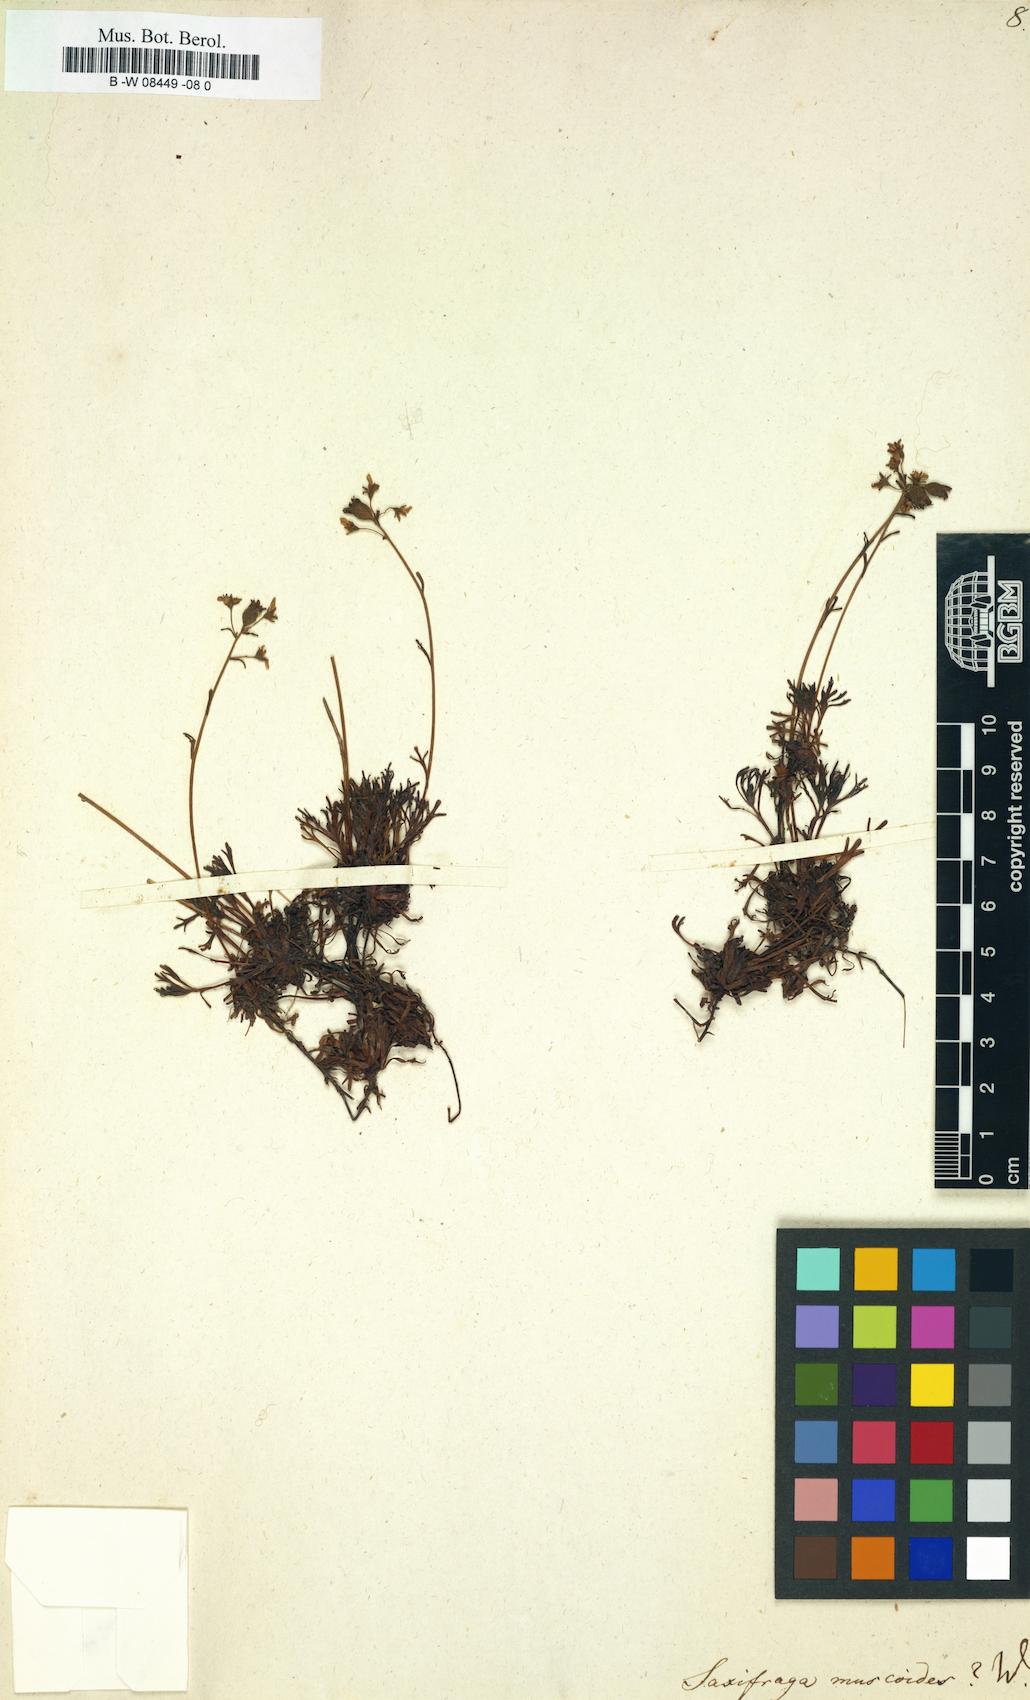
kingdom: Plantae
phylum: Tracheophyta
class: Magnoliopsida
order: Saxifragales
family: Saxifragaceae
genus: Saxifraga
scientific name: Saxifraga muscoides
